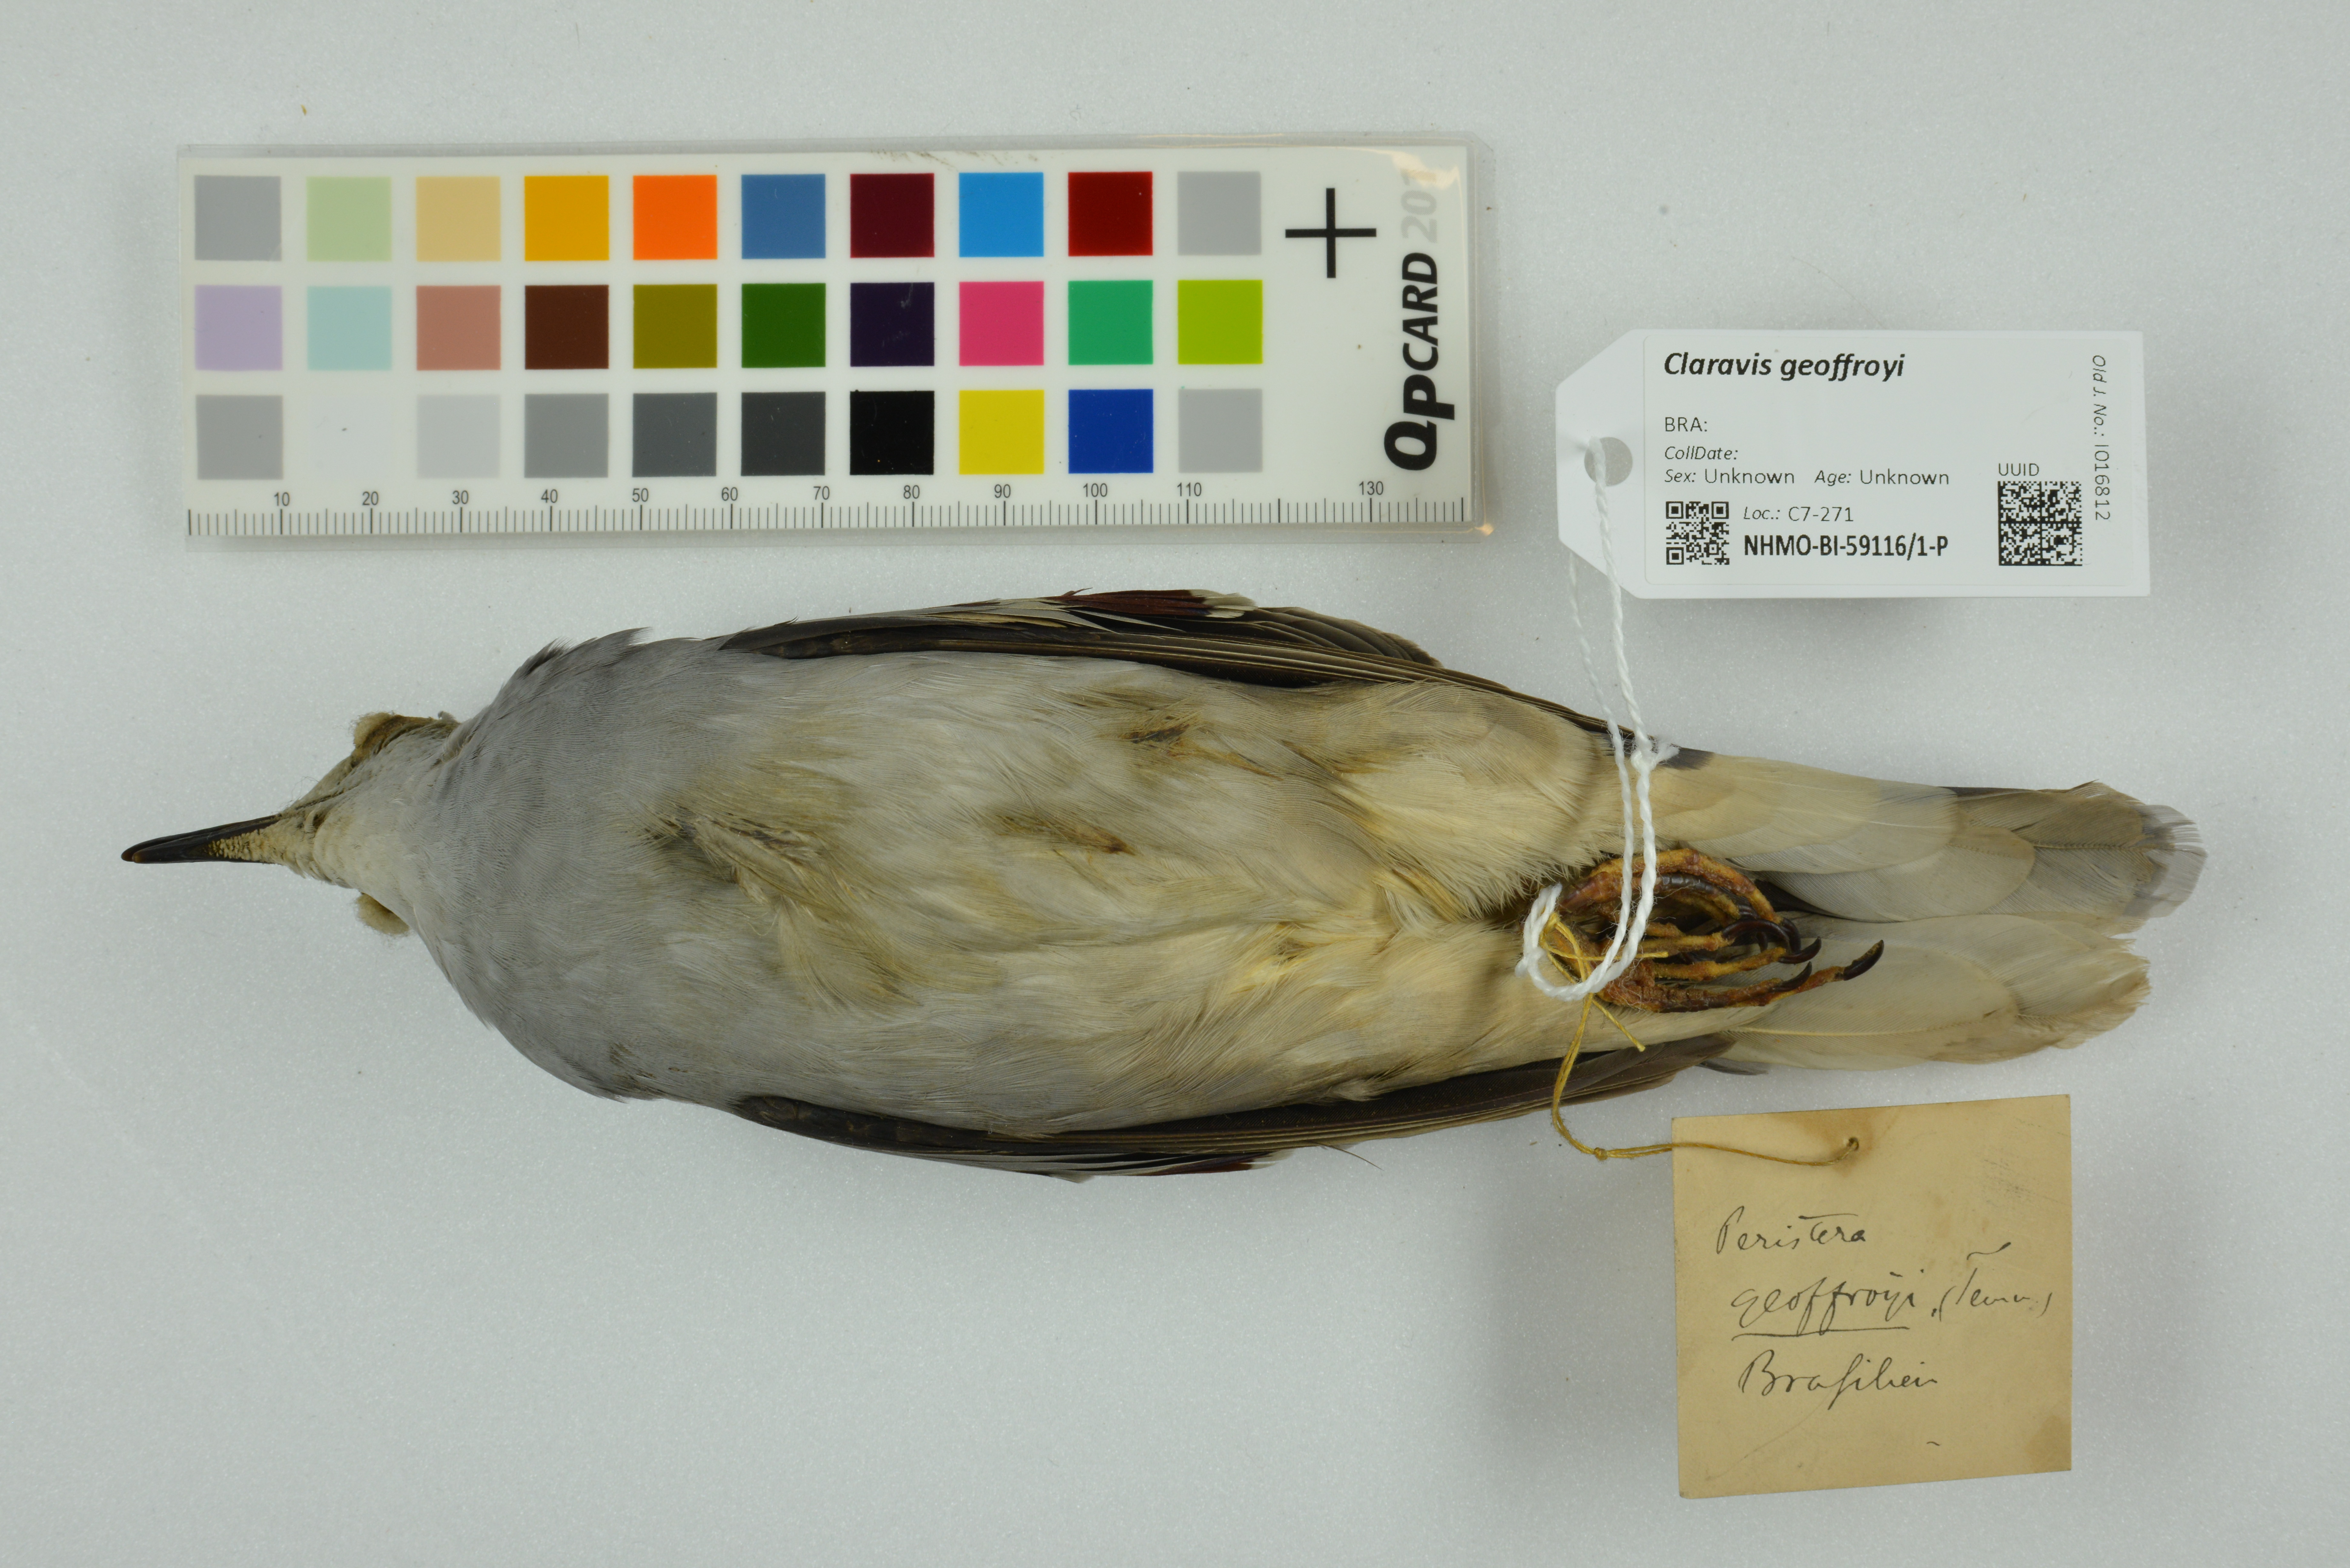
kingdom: Animalia
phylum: Chordata
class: Aves
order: Columbiformes
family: Columbidae
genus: Claravis
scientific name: Claravis geoffroyi
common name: Purple-winged ground dove
